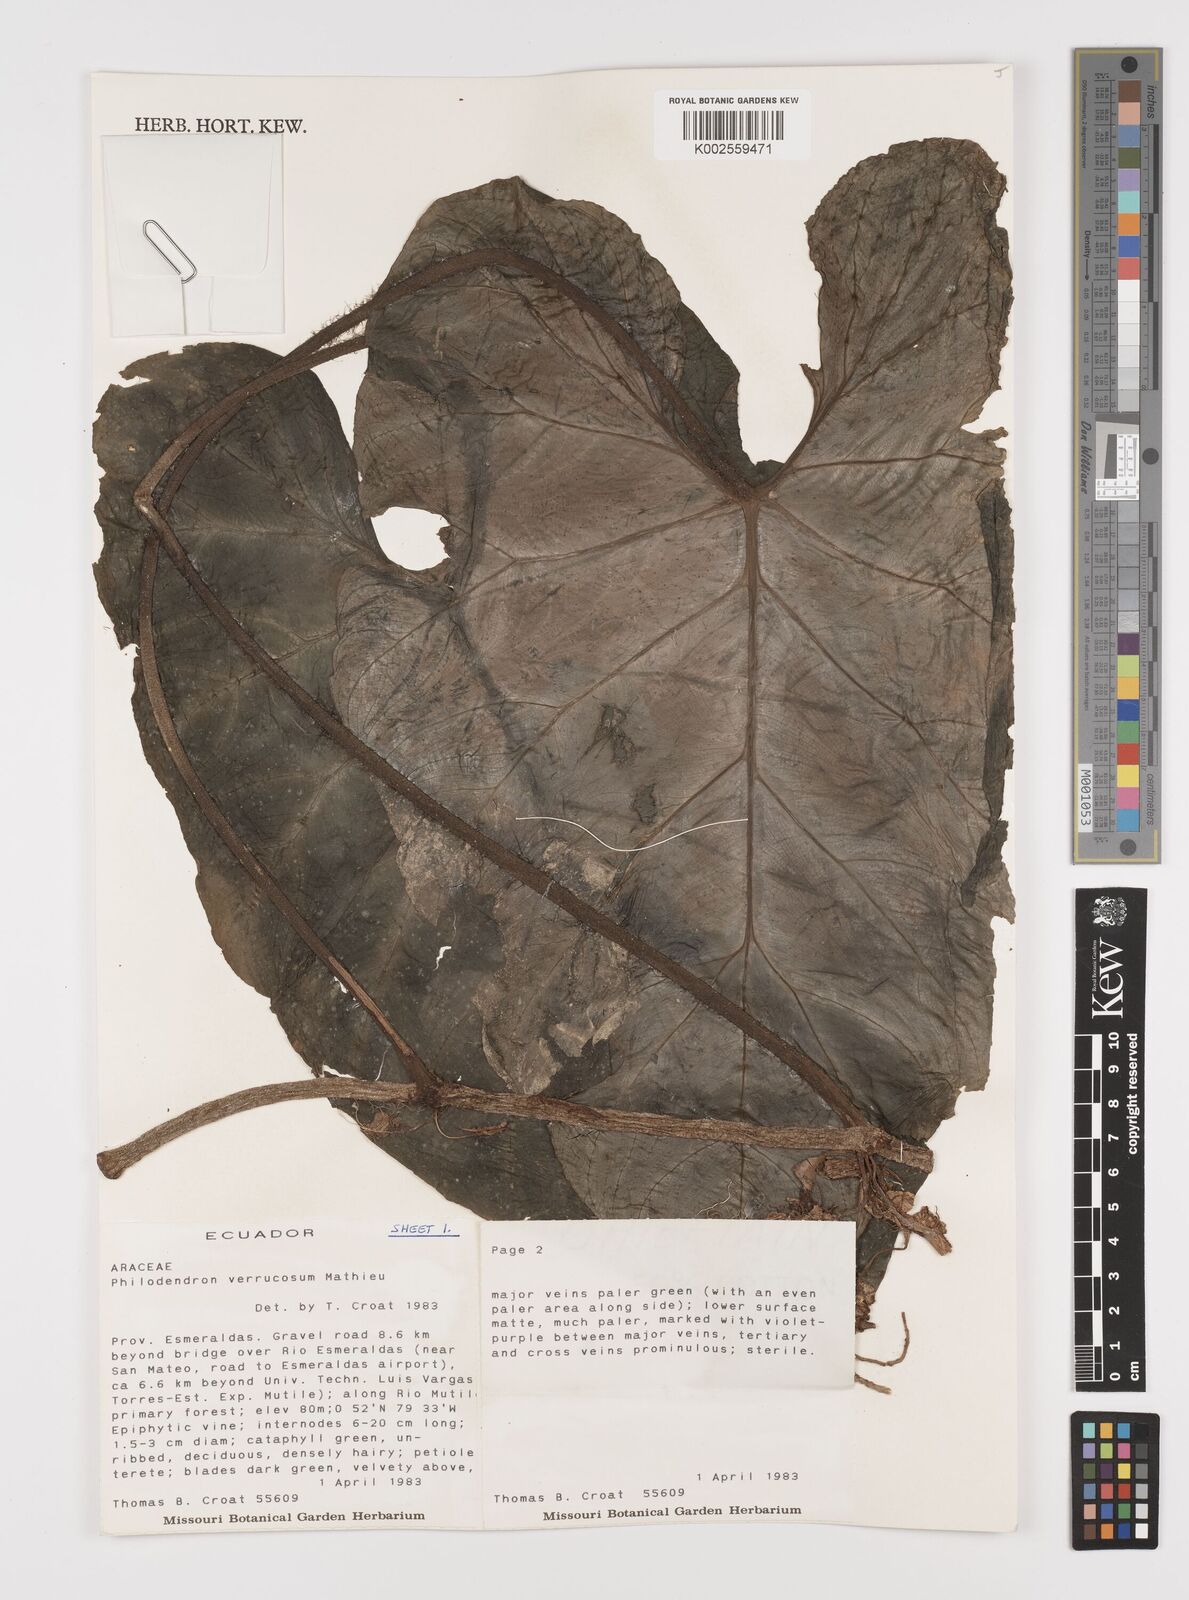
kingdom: Plantae
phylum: Tracheophyta
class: Liliopsida
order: Alismatales
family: Araceae
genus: Philodendron
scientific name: Philodendron verrucosum
